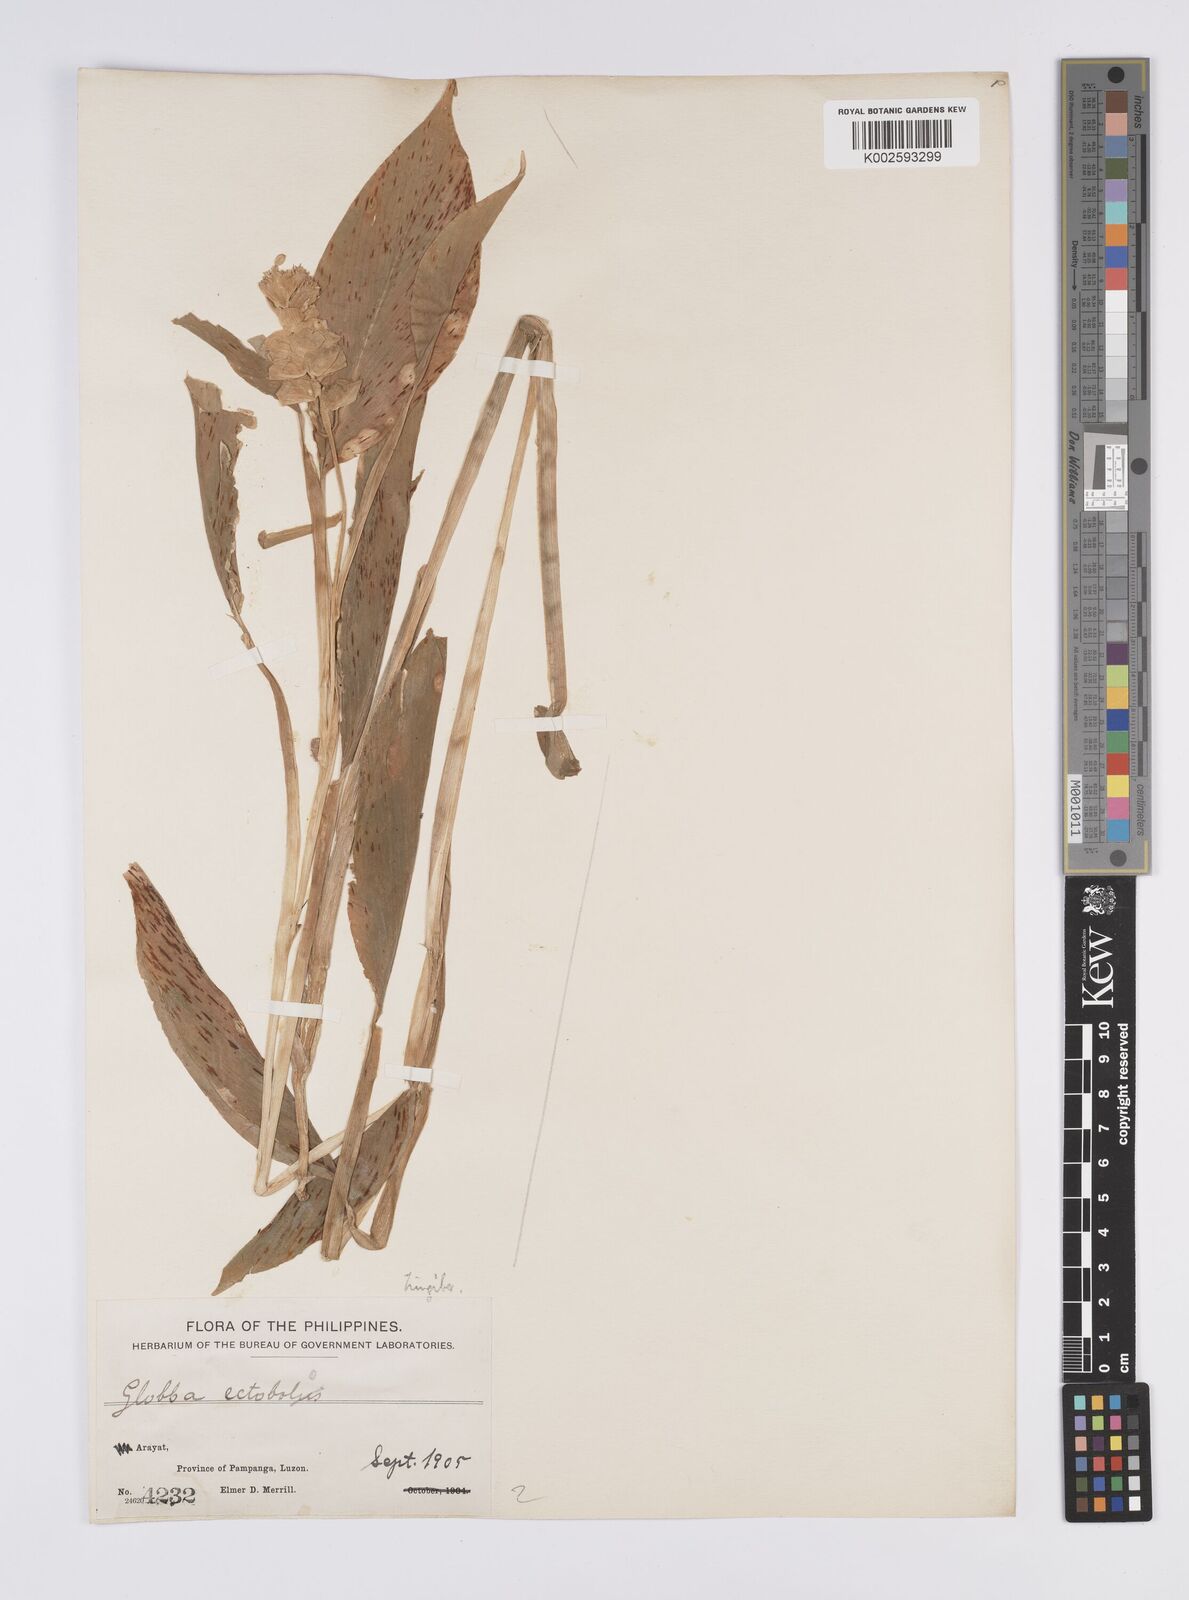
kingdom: Plantae
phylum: Tracheophyta
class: Liliopsida
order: Zingiberales
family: Zingiberaceae
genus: Globba
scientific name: Globba marantina
